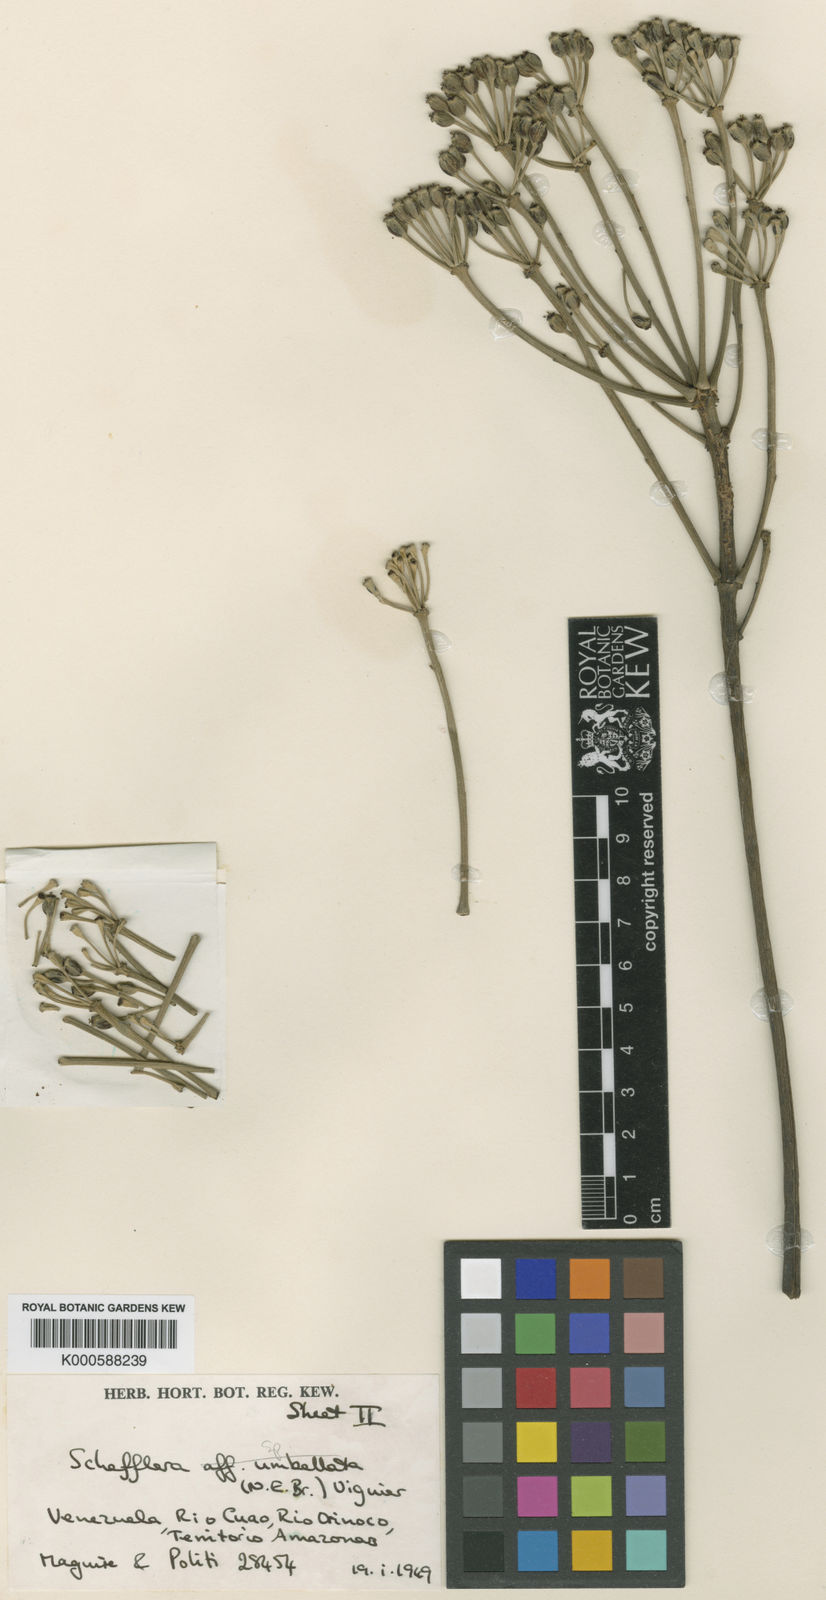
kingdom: Plantae
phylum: Tracheophyta
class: Magnoliopsida
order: Apiales
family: Araliaceae
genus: Crepinella
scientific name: Crepinella
